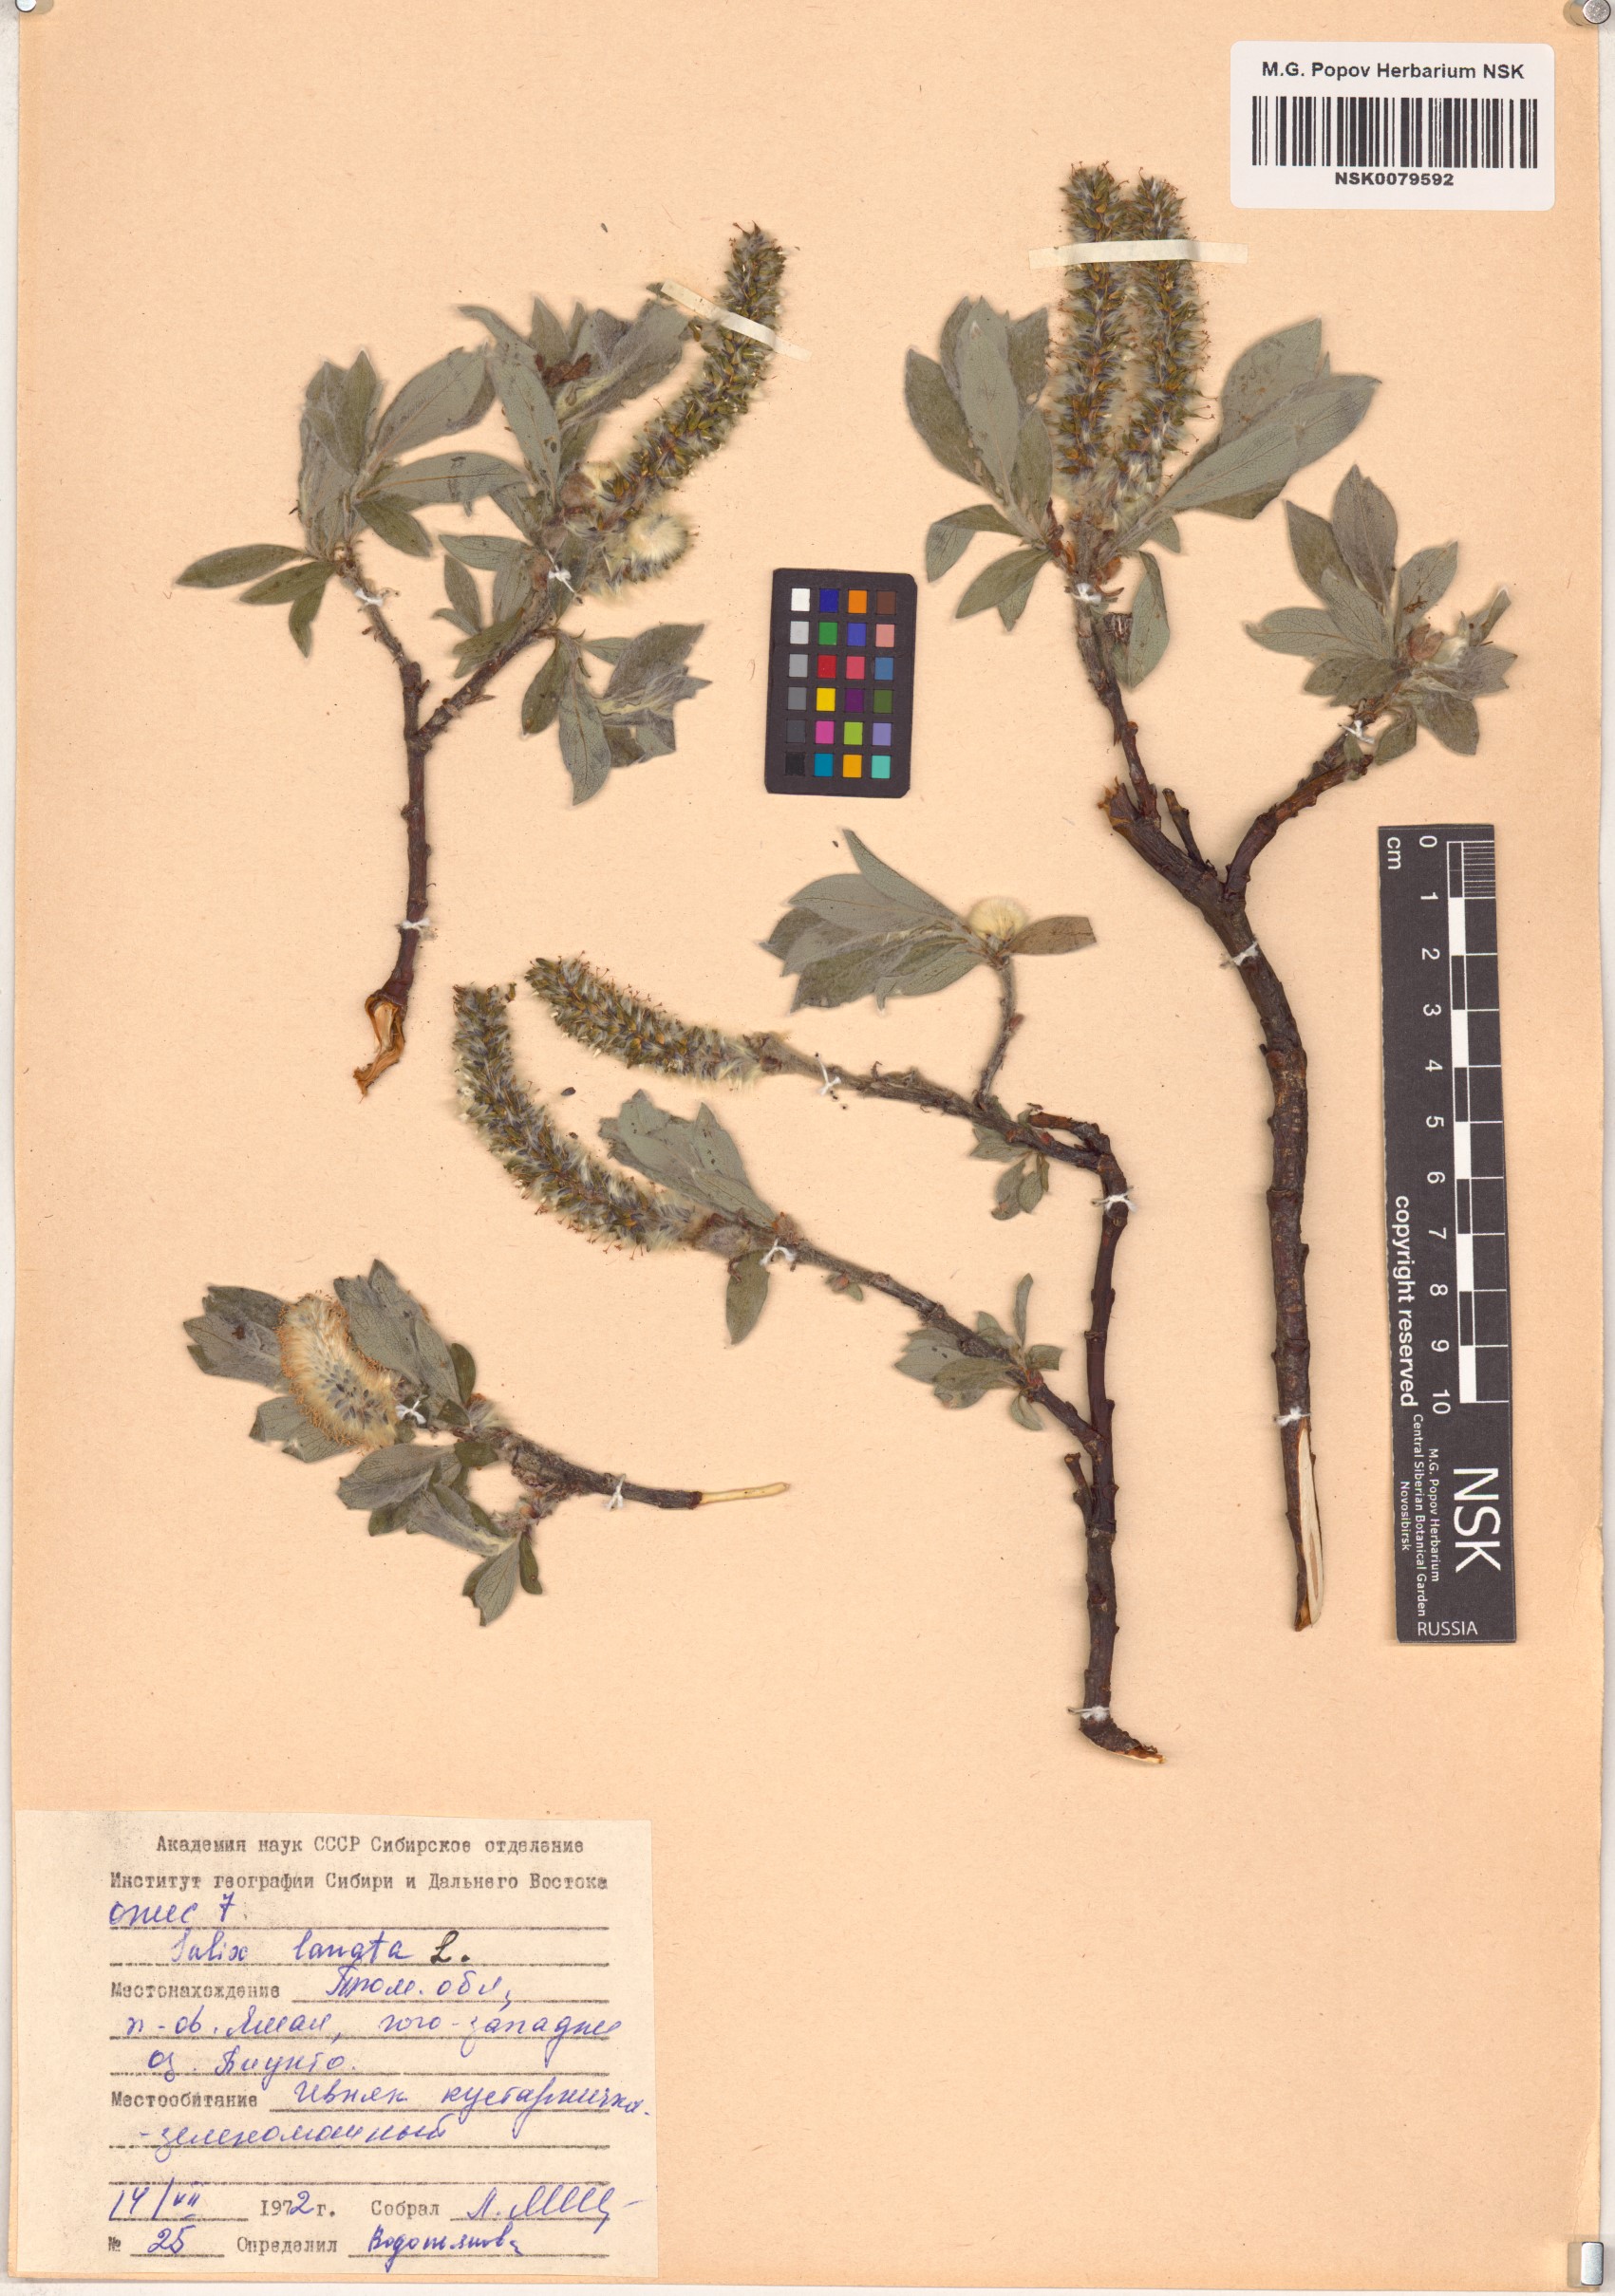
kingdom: Plantae
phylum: Tracheophyta
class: Magnoliopsida
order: Malpighiales
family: Salicaceae
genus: Salix
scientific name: Salix lanata
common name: Woolly willow
